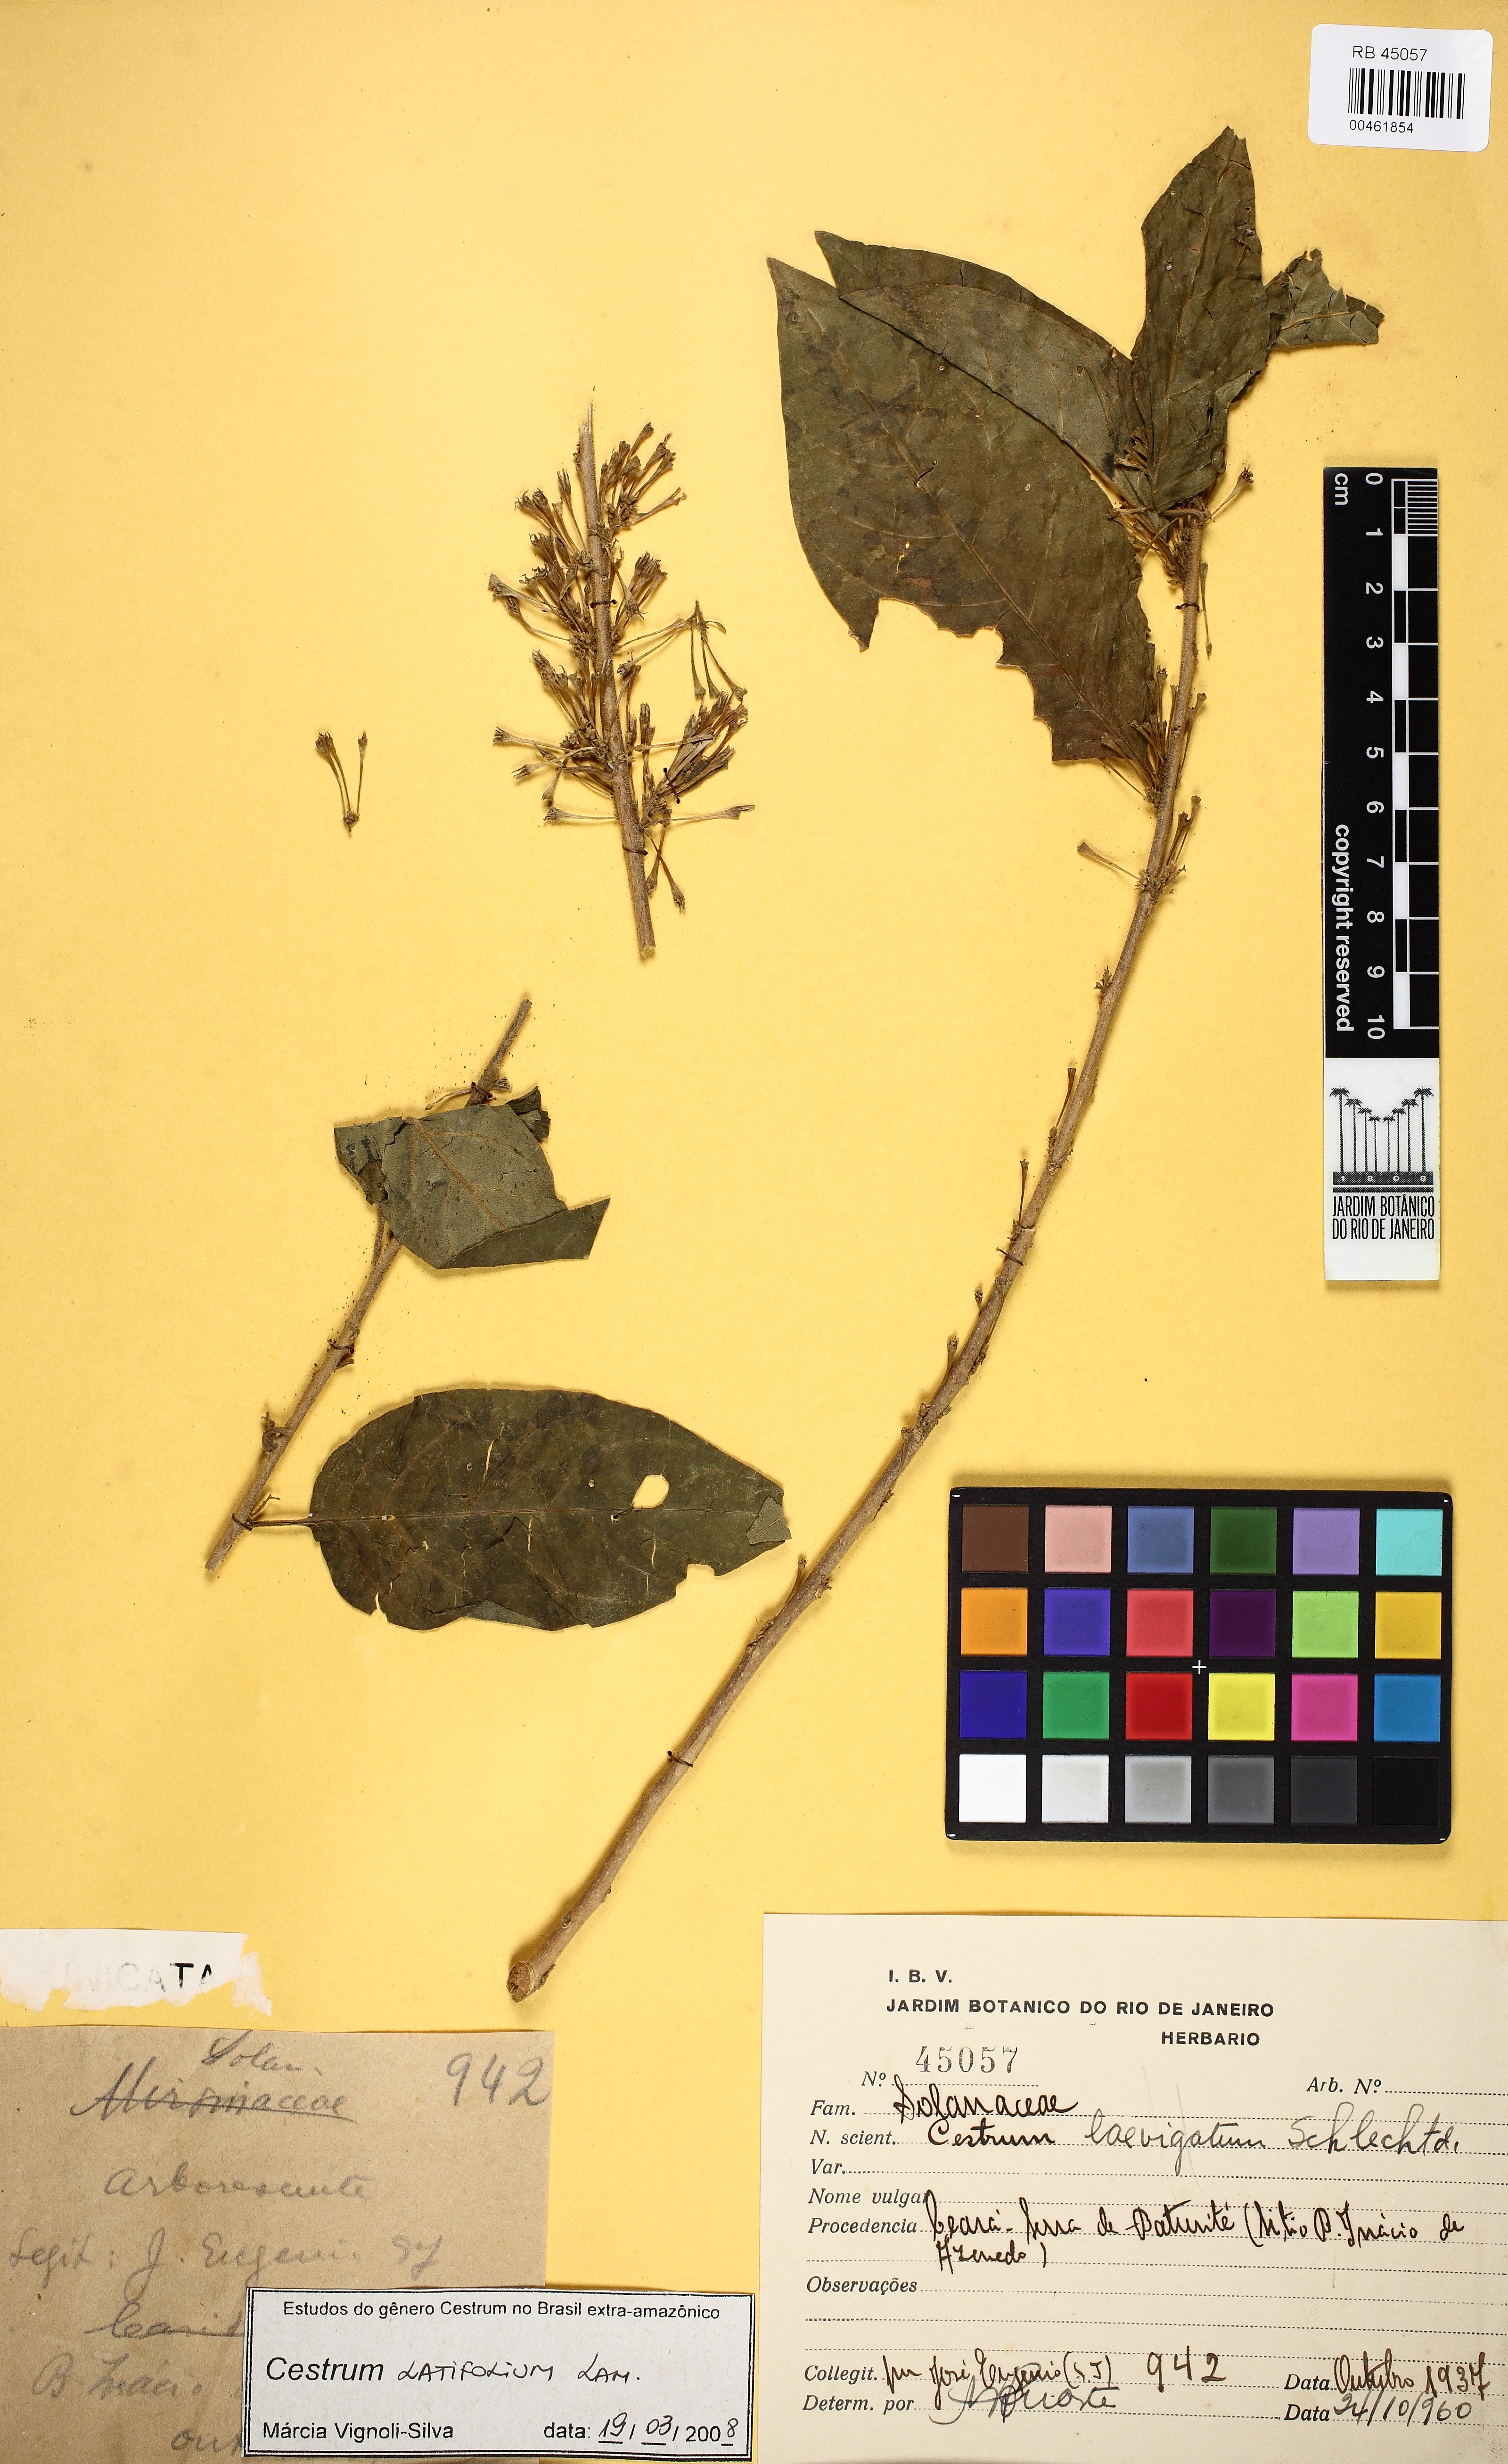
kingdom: Plantae
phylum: Tracheophyta
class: Magnoliopsida
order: Solanales
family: Solanaceae
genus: Cestrum
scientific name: Cestrum latifolium
